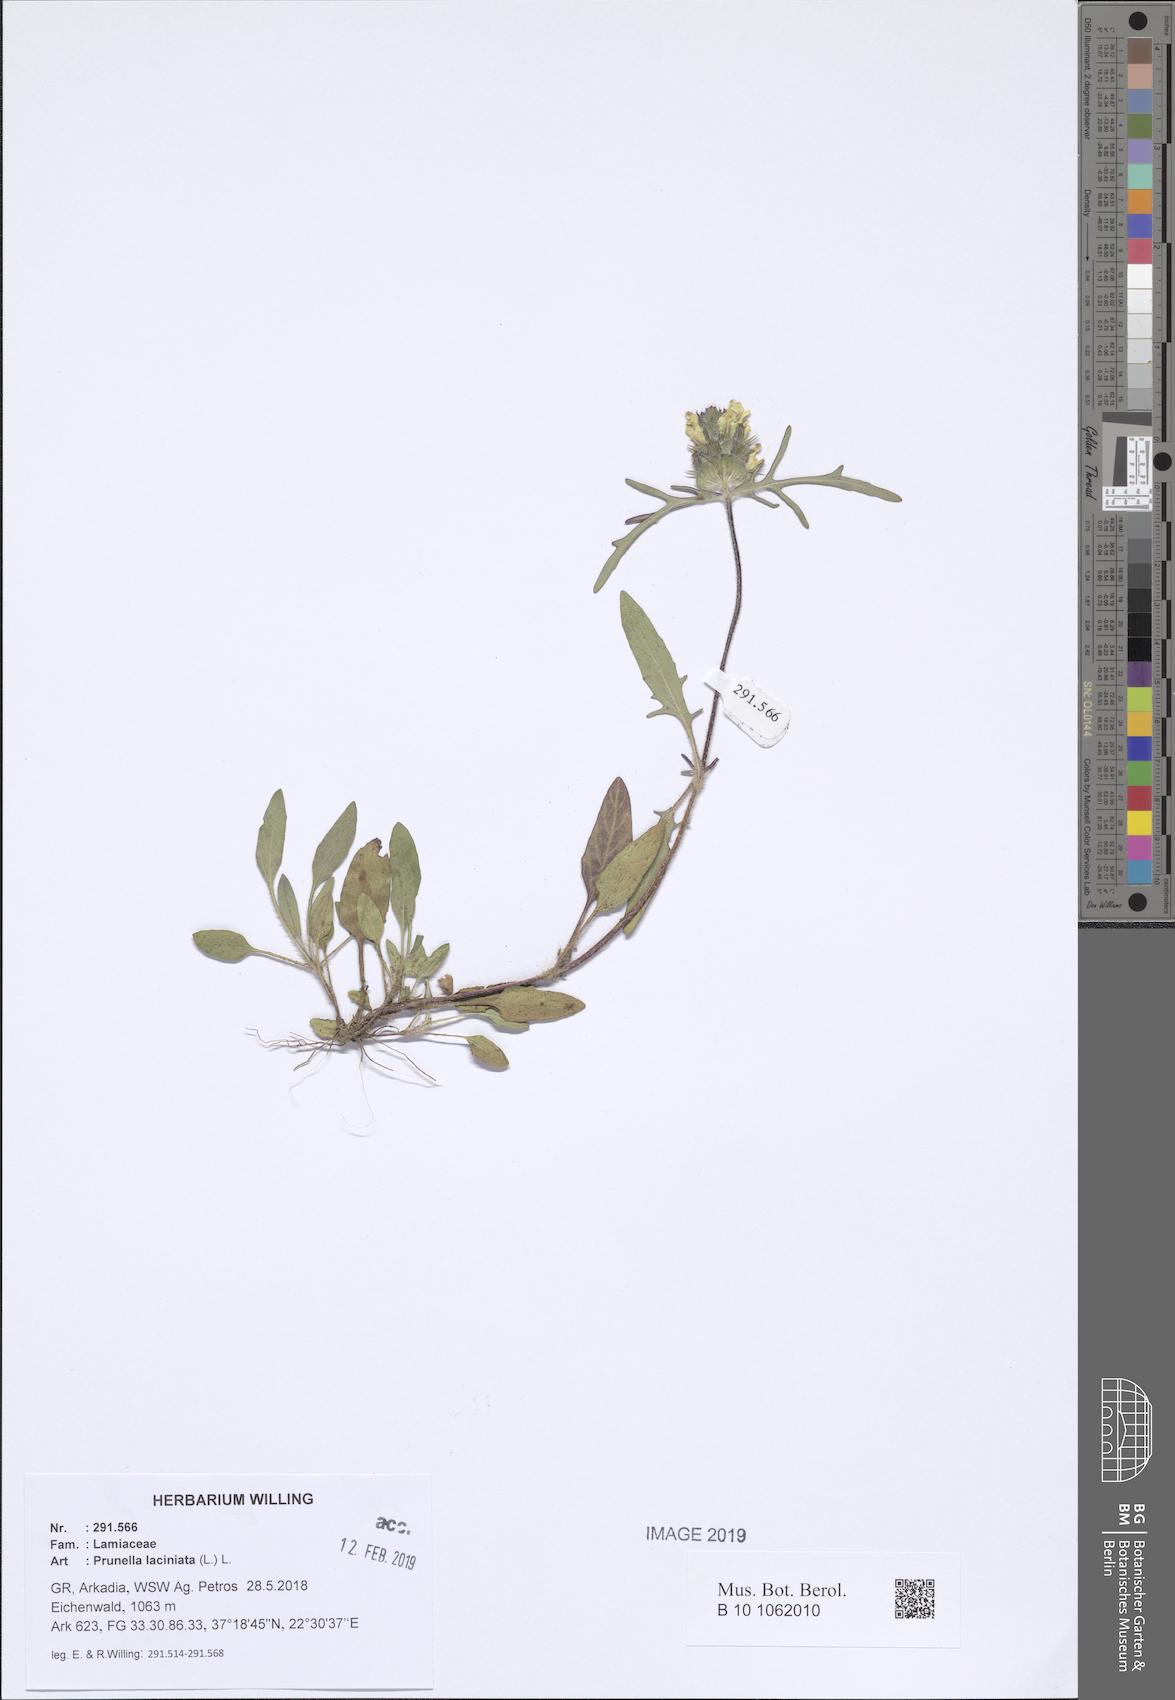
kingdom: Plantae
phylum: Tracheophyta
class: Magnoliopsida
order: Lamiales
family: Lamiaceae
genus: Prunella
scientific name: Prunella laciniata
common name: Cut-leaved selfheal
